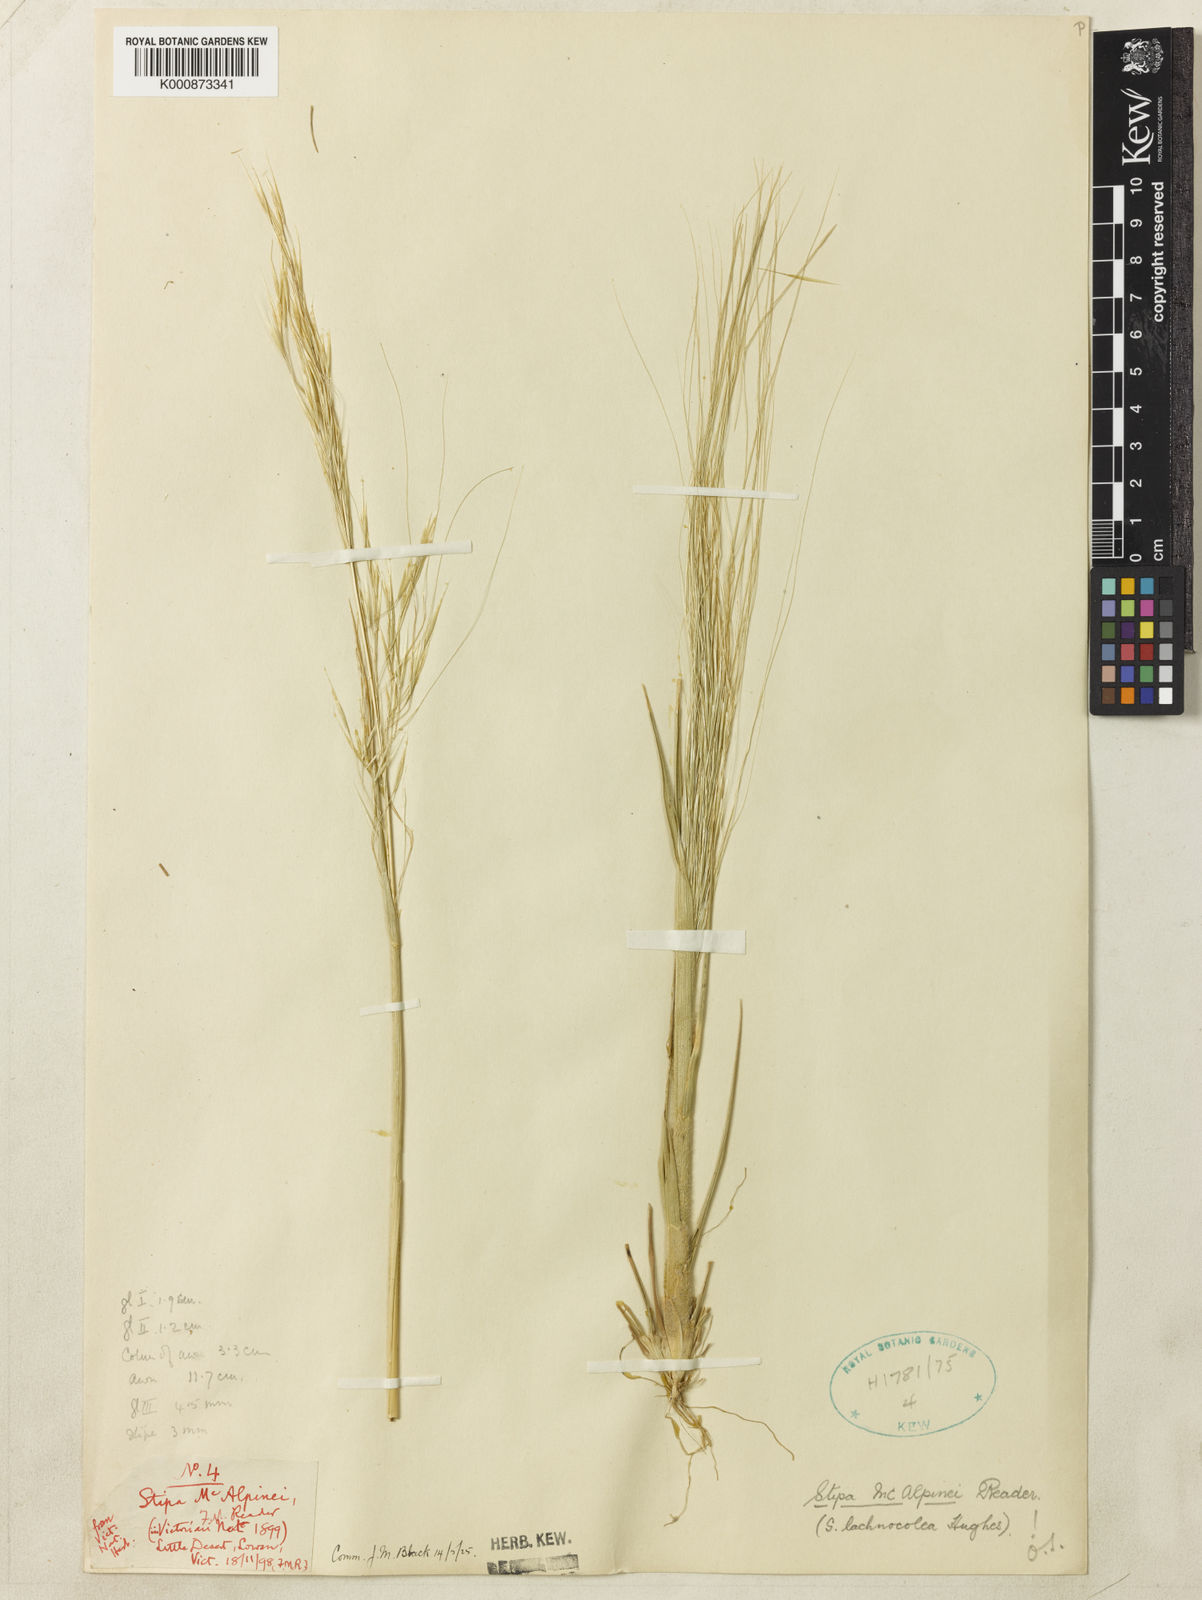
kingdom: Plantae
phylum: Tracheophyta
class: Liliopsida
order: Poales
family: Poaceae
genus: Austrostipa
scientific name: Austrostipa macalpinei
